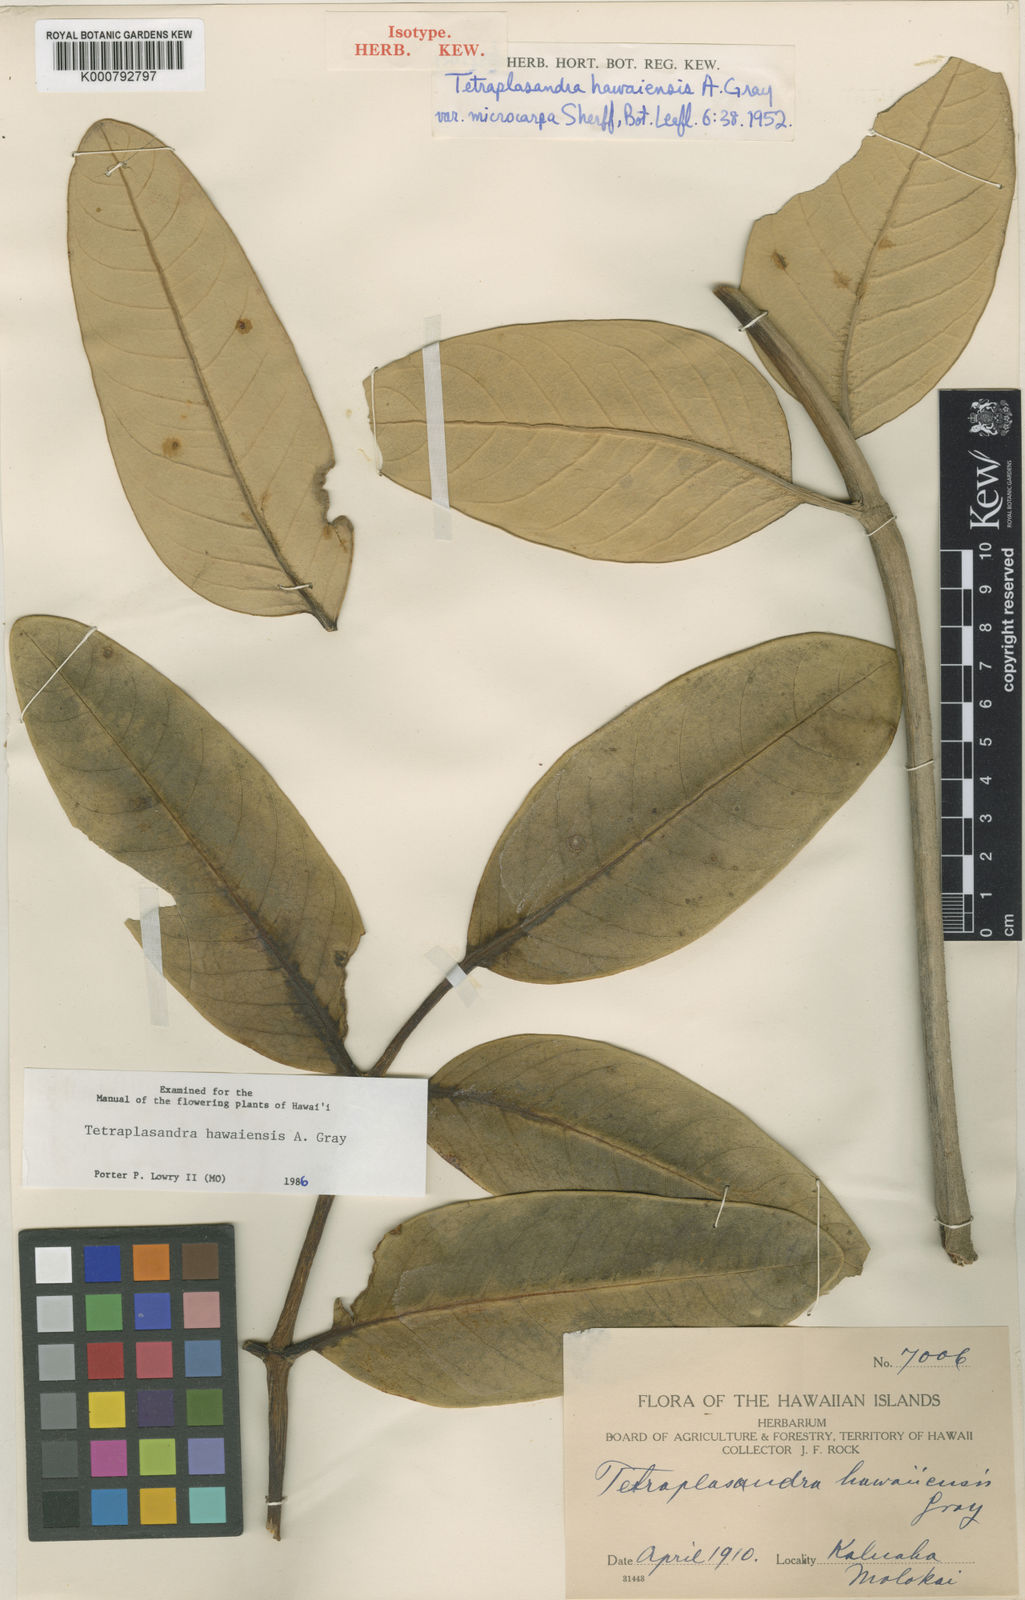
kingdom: Plantae
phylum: Tracheophyta
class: Magnoliopsida
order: Apiales
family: Araliaceae
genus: Polyscias
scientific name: Polyscias hawaiensis
